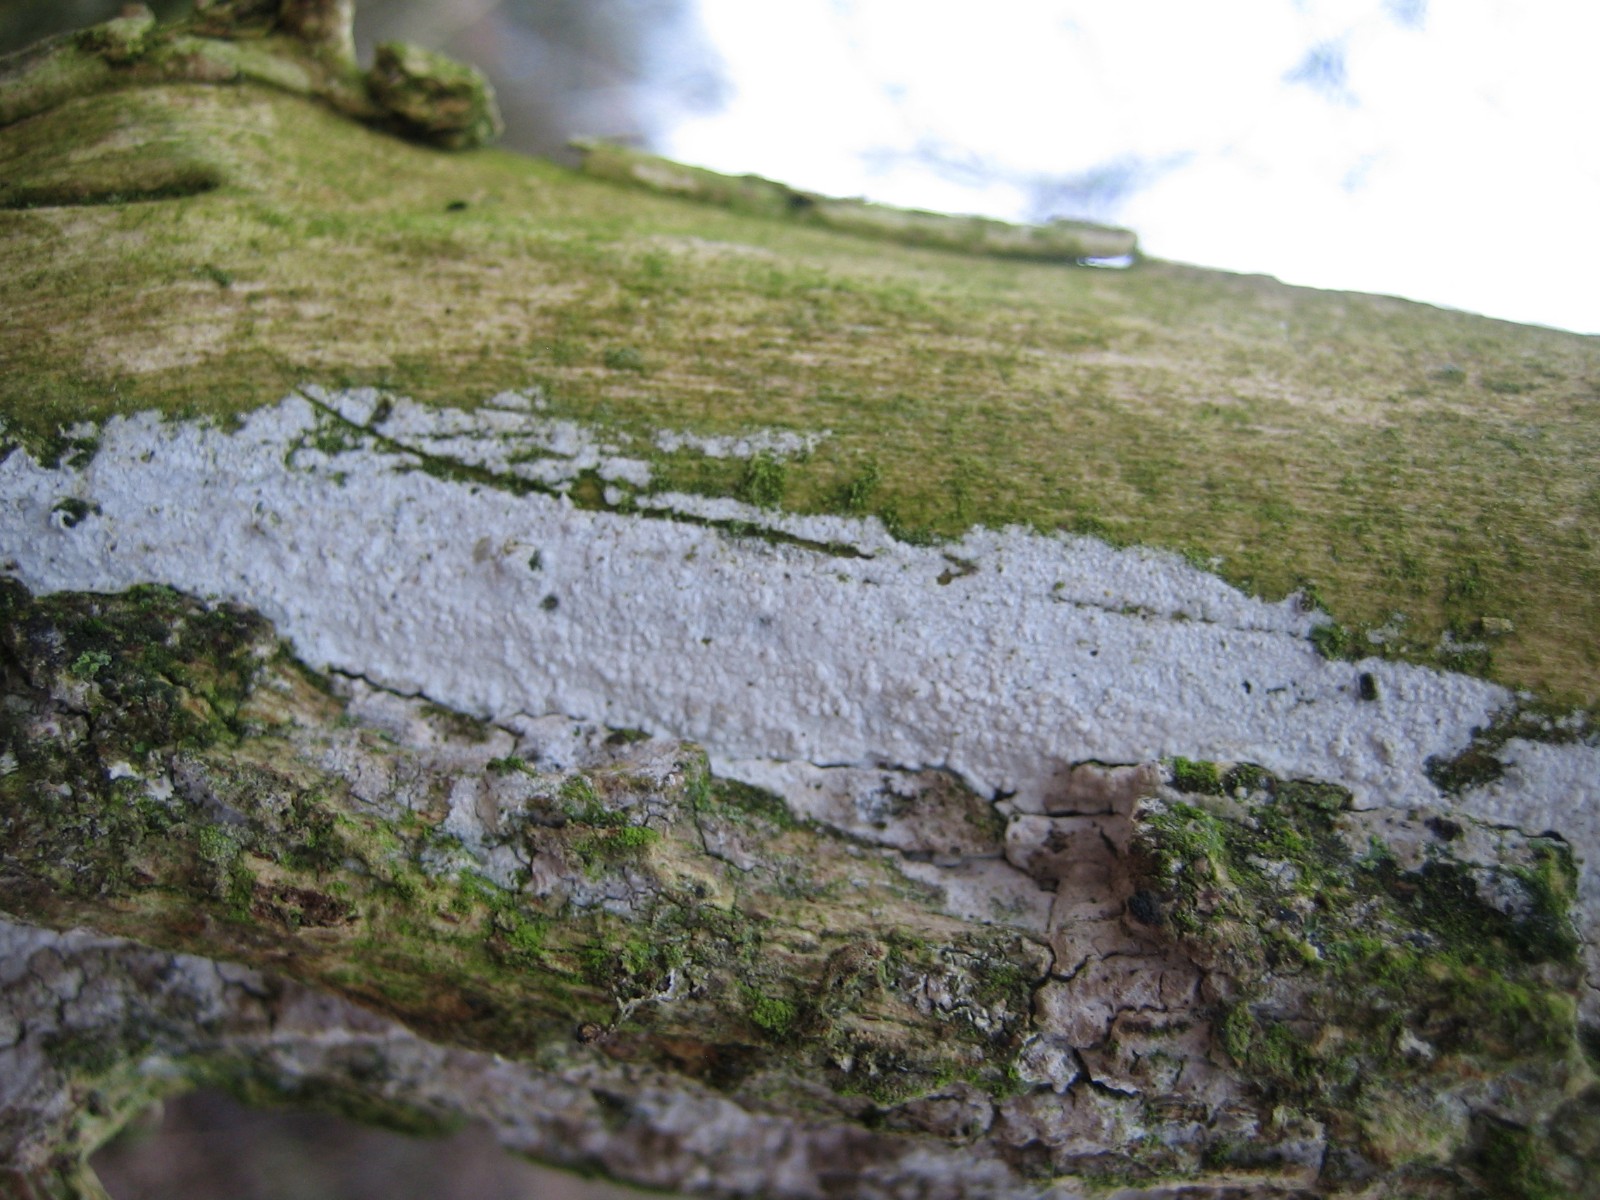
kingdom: Fungi
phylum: Basidiomycota
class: Agaricomycetes
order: Corticiales
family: Corticiaceae
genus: Lyomyces
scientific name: Lyomyces sambuci
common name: almindelig hyldehinde
